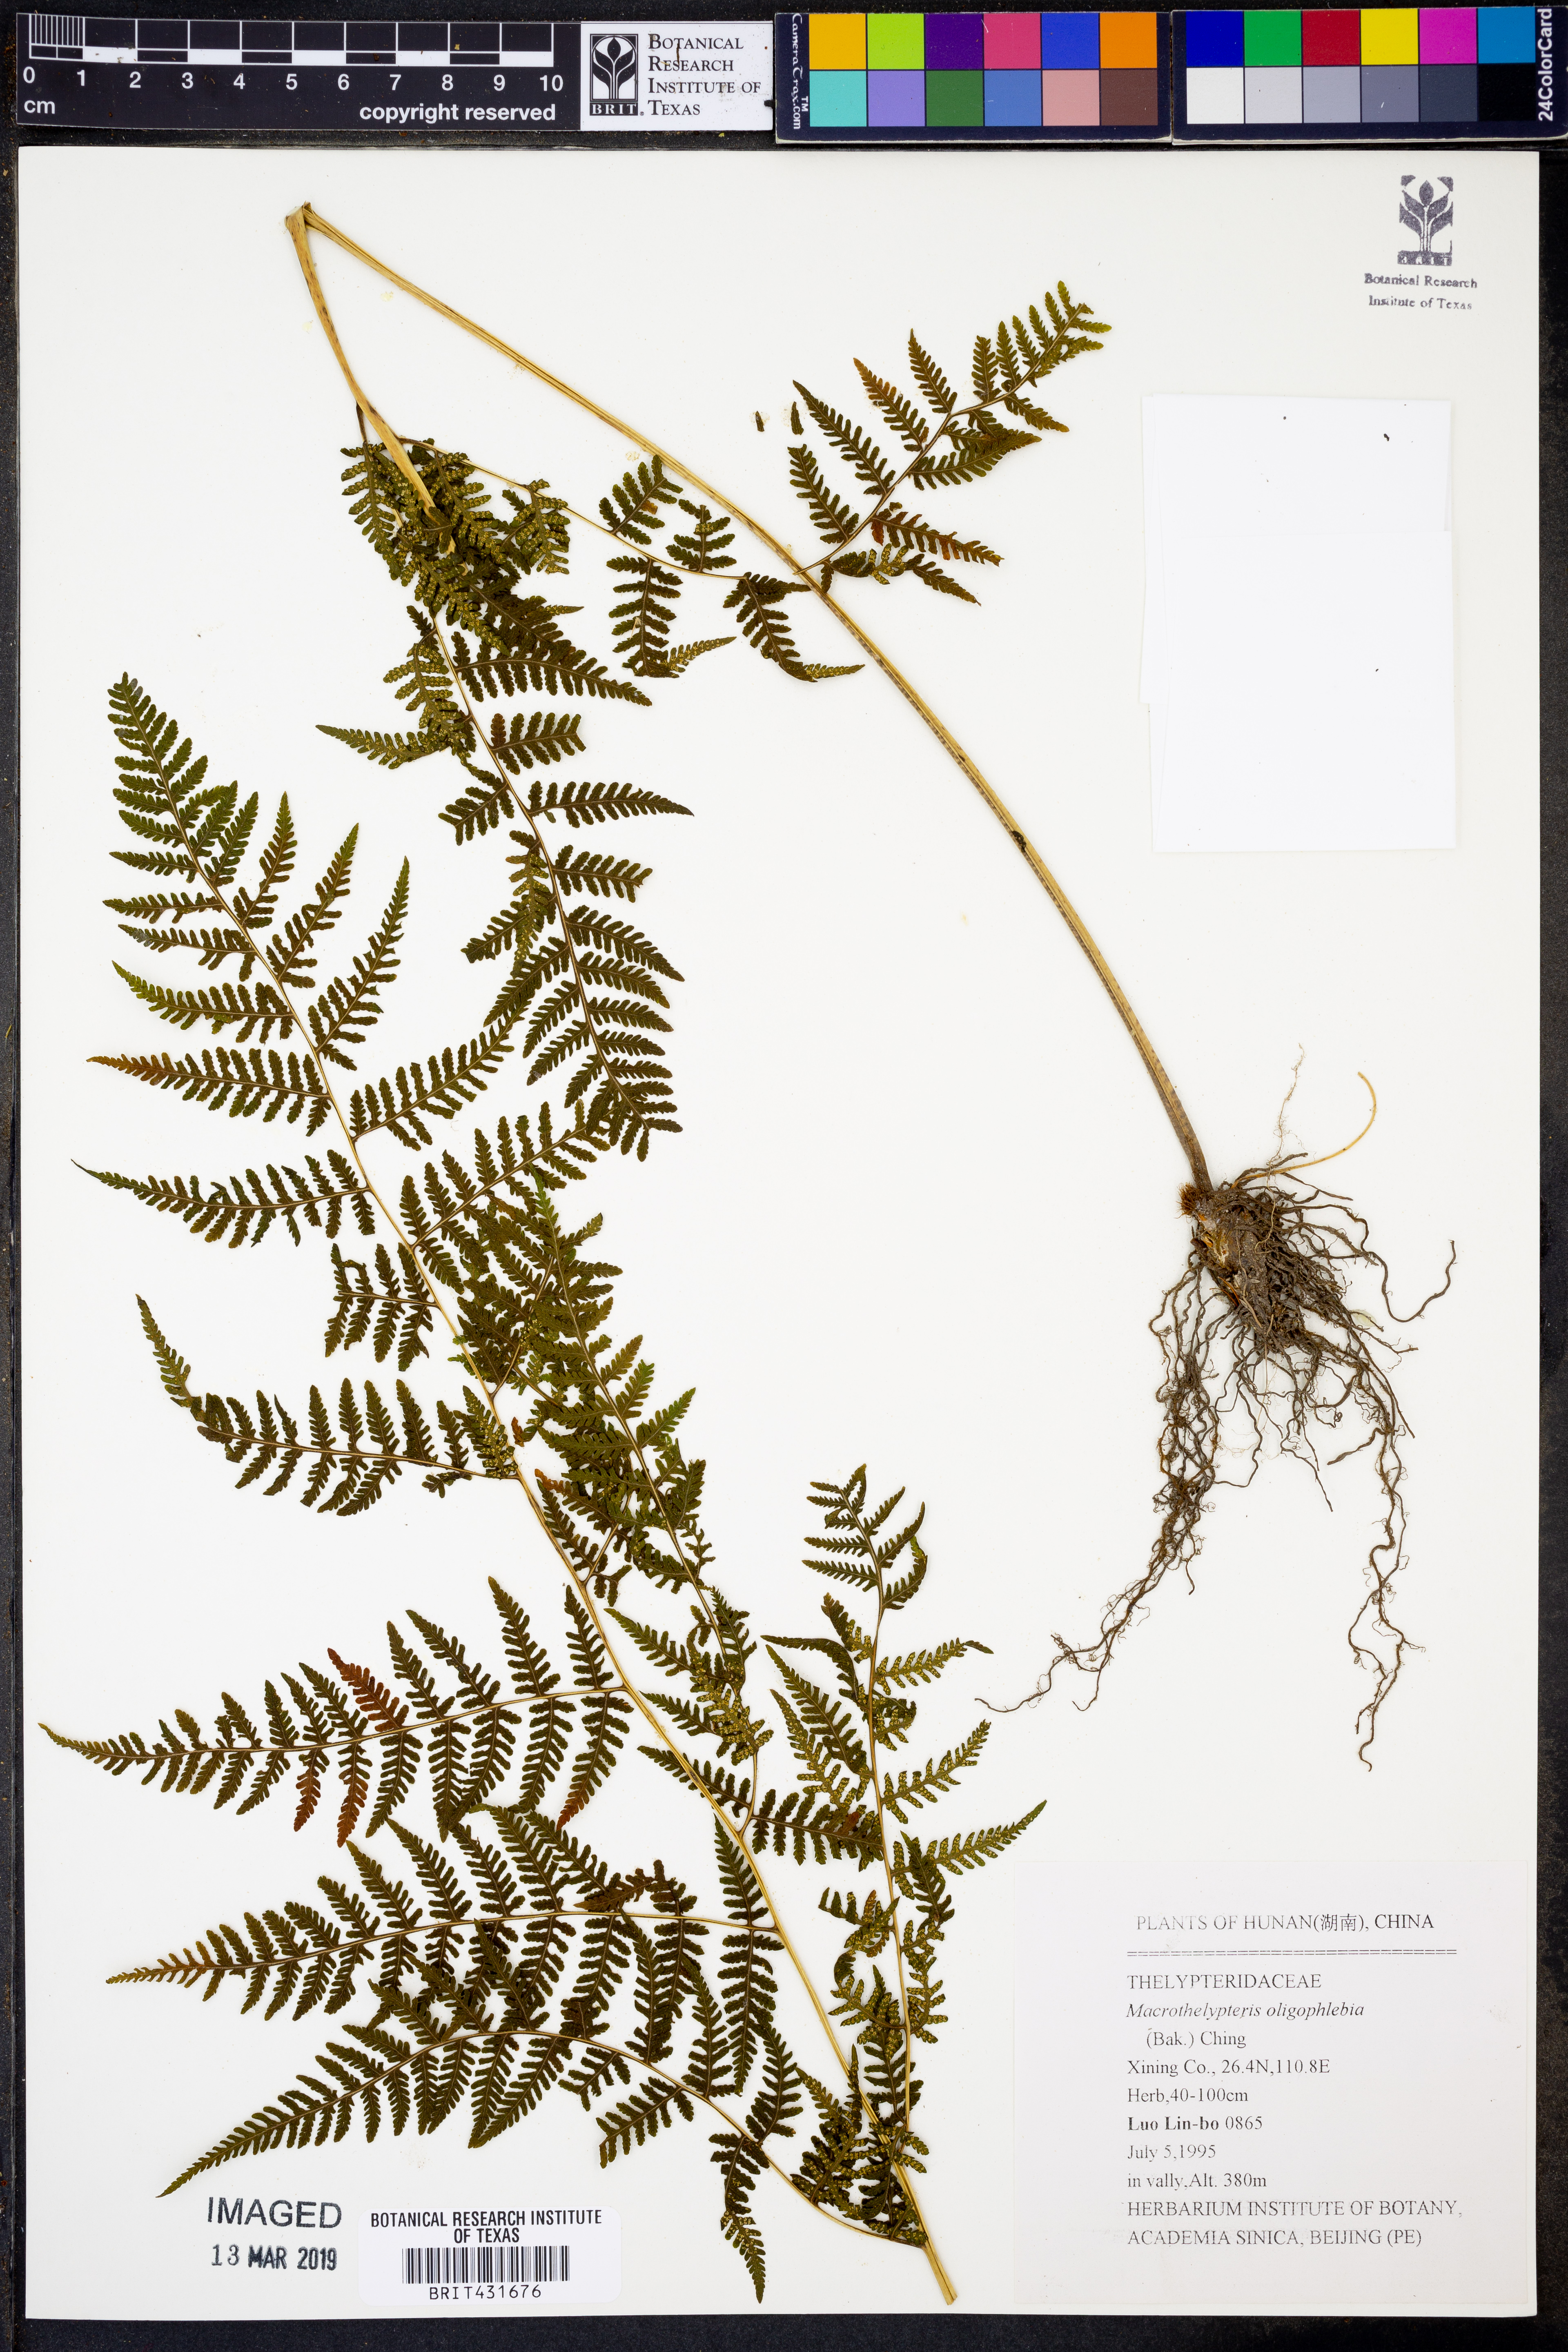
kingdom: Plantae
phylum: Tracheophyta
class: Polypodiopsida
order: Polypodiales
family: Thelypteridaceae
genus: Macrothelypteris
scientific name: Macrothelypteris oligophlebia
